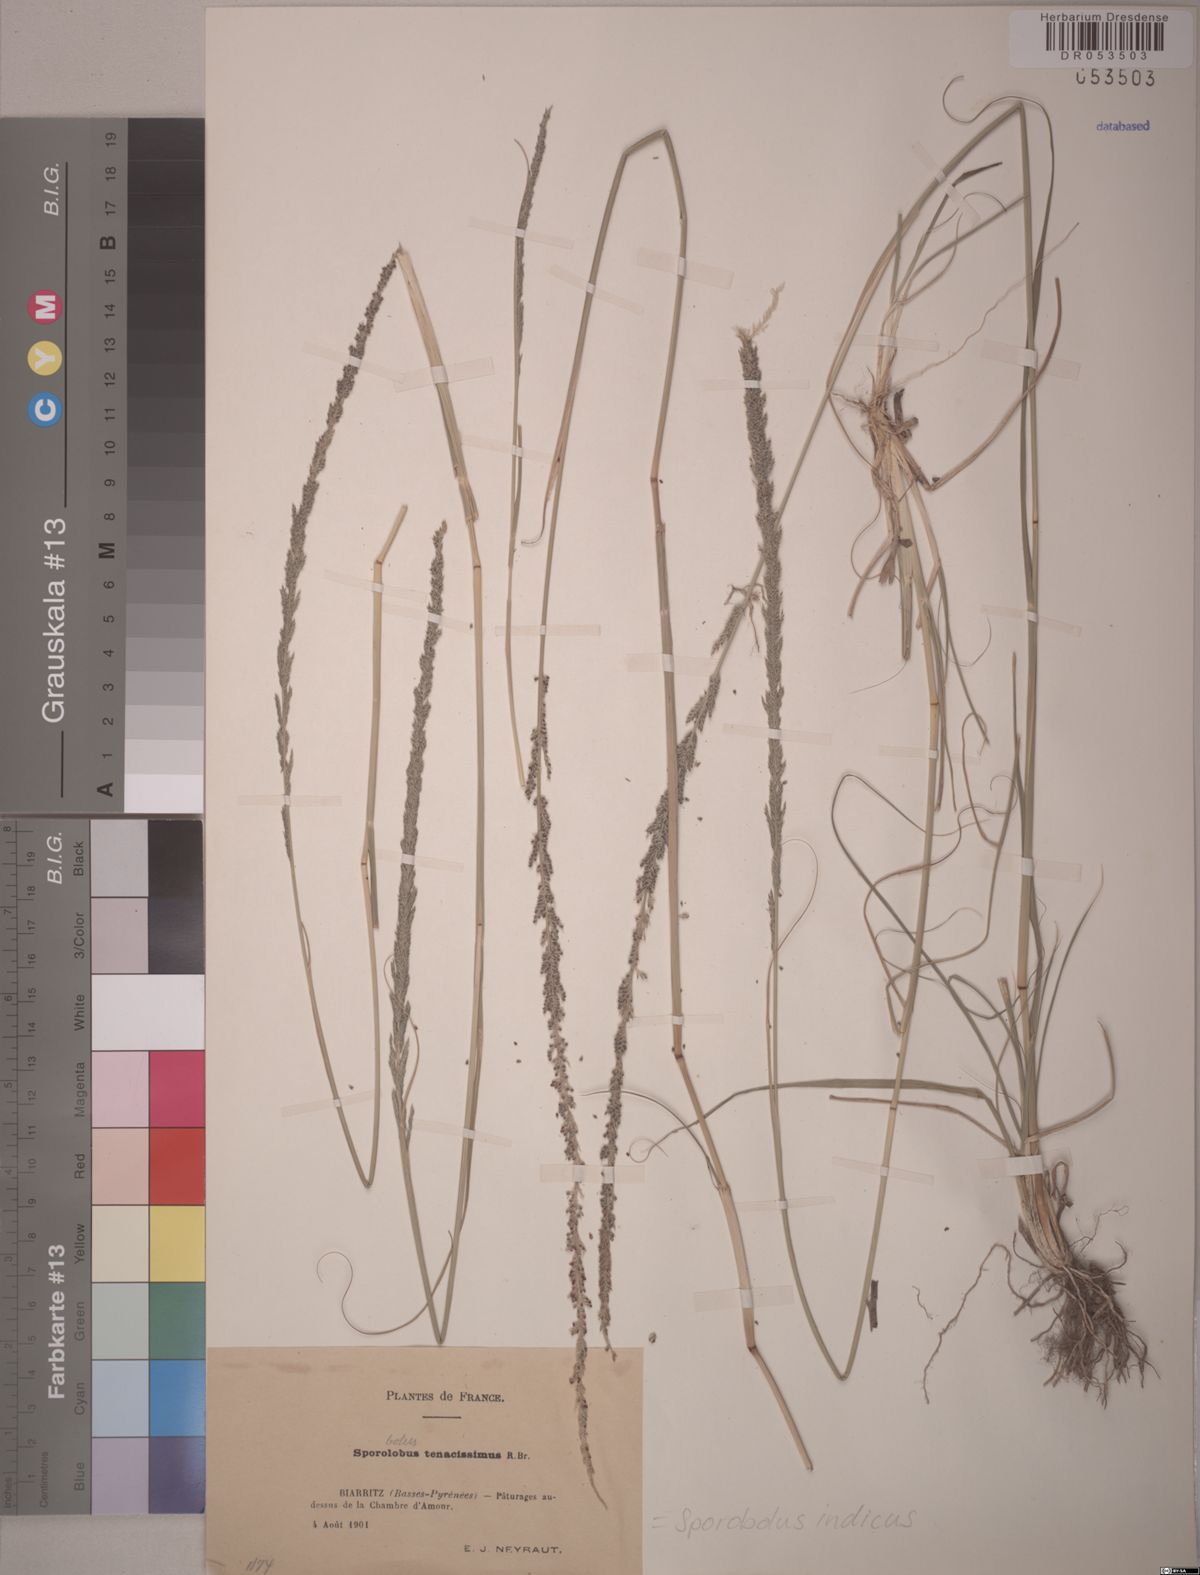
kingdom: Plantae
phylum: Tracheophyta
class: Liliopsida
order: Poales
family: Poaceae
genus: Sporobolus
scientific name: Sporobolus indicus
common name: Smut grass
